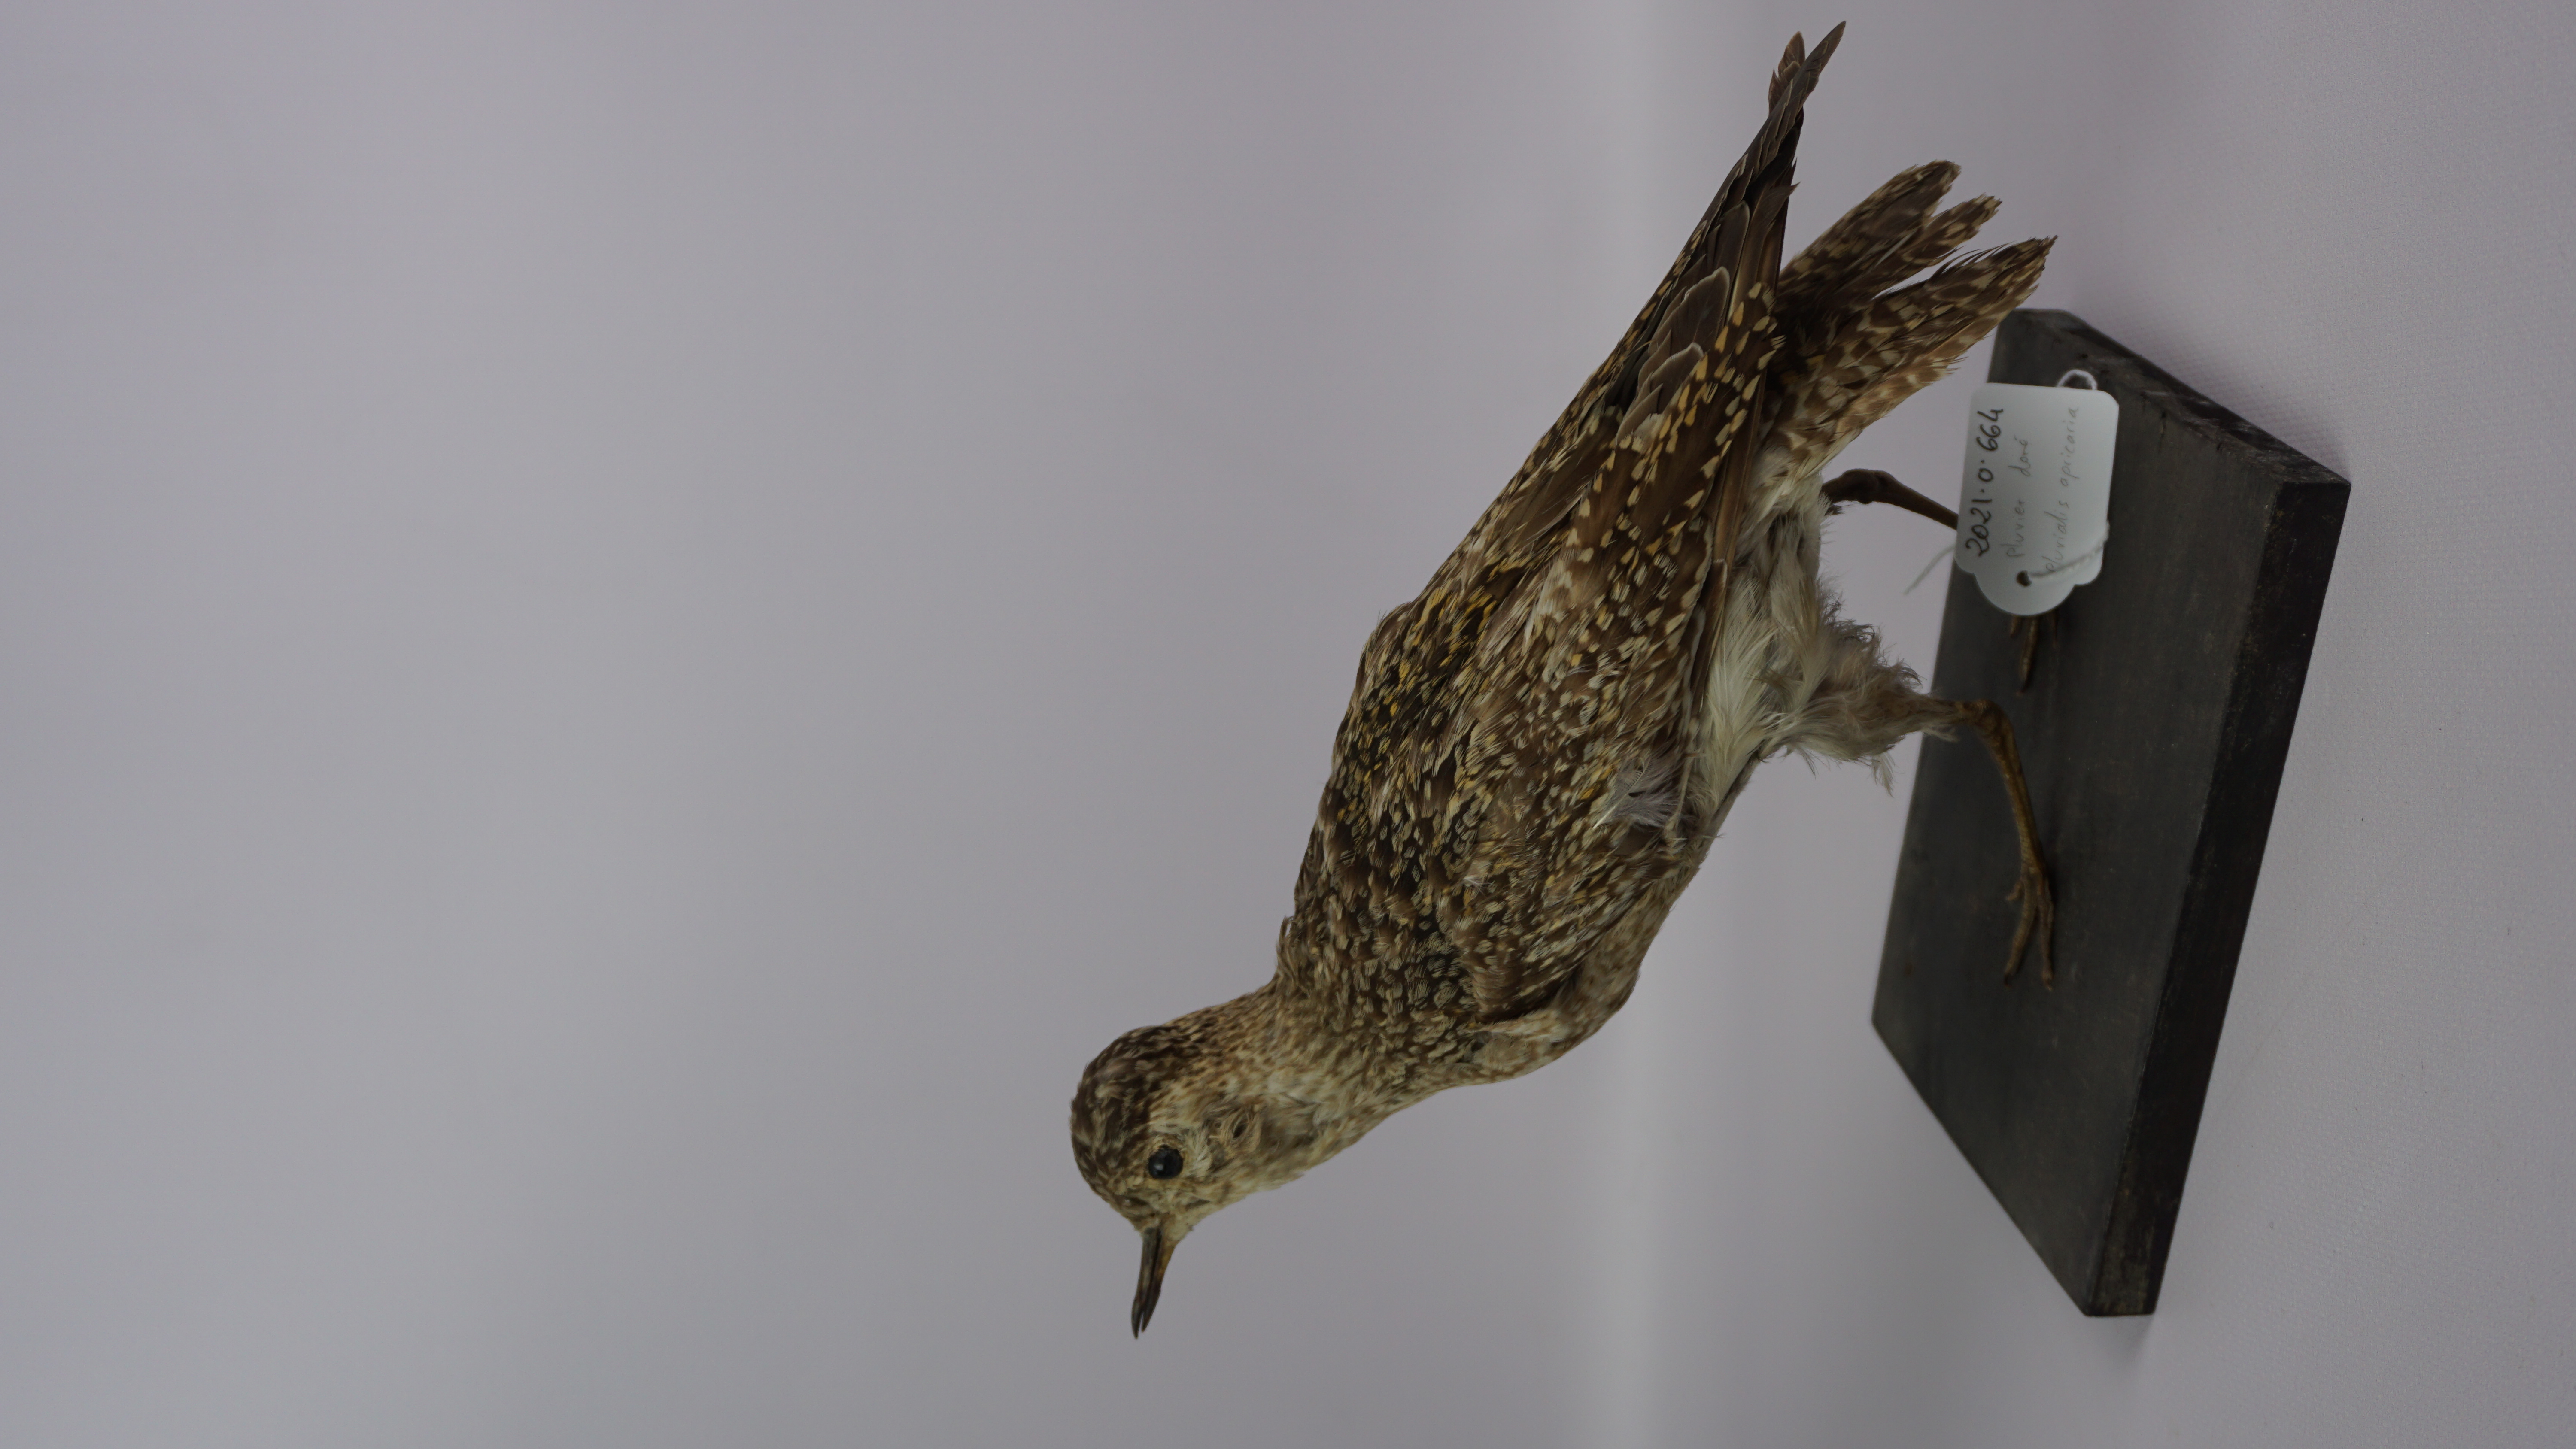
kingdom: Animalia
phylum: Chordata
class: Aves
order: Charadriiformes
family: Charadriidae
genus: Pluvialis
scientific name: Pluvialis apricaria
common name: European golden plover
